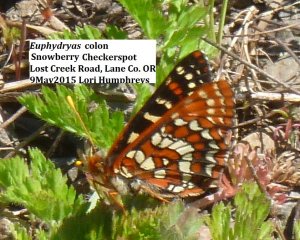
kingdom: Animalia
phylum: Arthropoda
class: Insecta
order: Lepidoptera
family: Nymphalidae
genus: Occidryas
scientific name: Occidryas colon
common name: Snowberry Checkerspot
